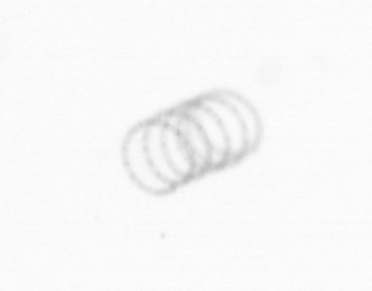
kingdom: Chromista
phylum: Ochrophyta
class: Bacillariophyceae
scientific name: Bacillariophyceae
